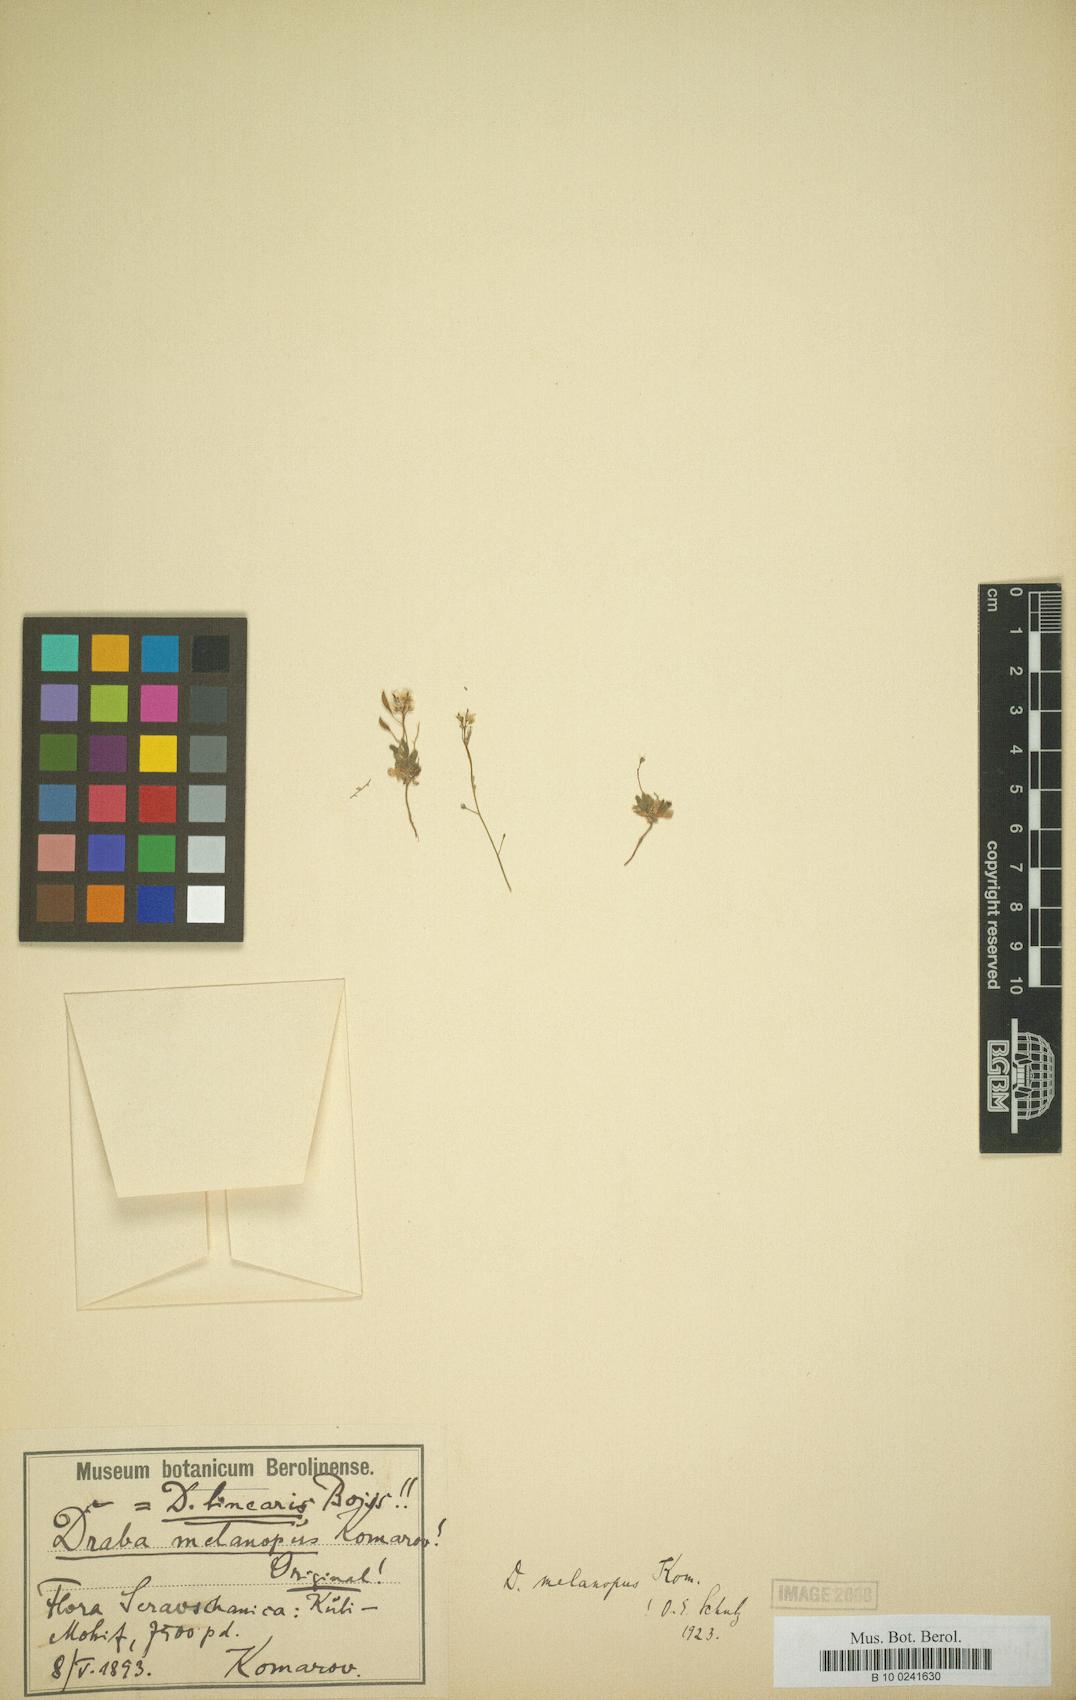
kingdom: Plantae
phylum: Tracheophyta
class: Magnoliopsida
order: Brassicales
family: Brassicaceae
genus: Draba
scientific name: Draba melanopus
